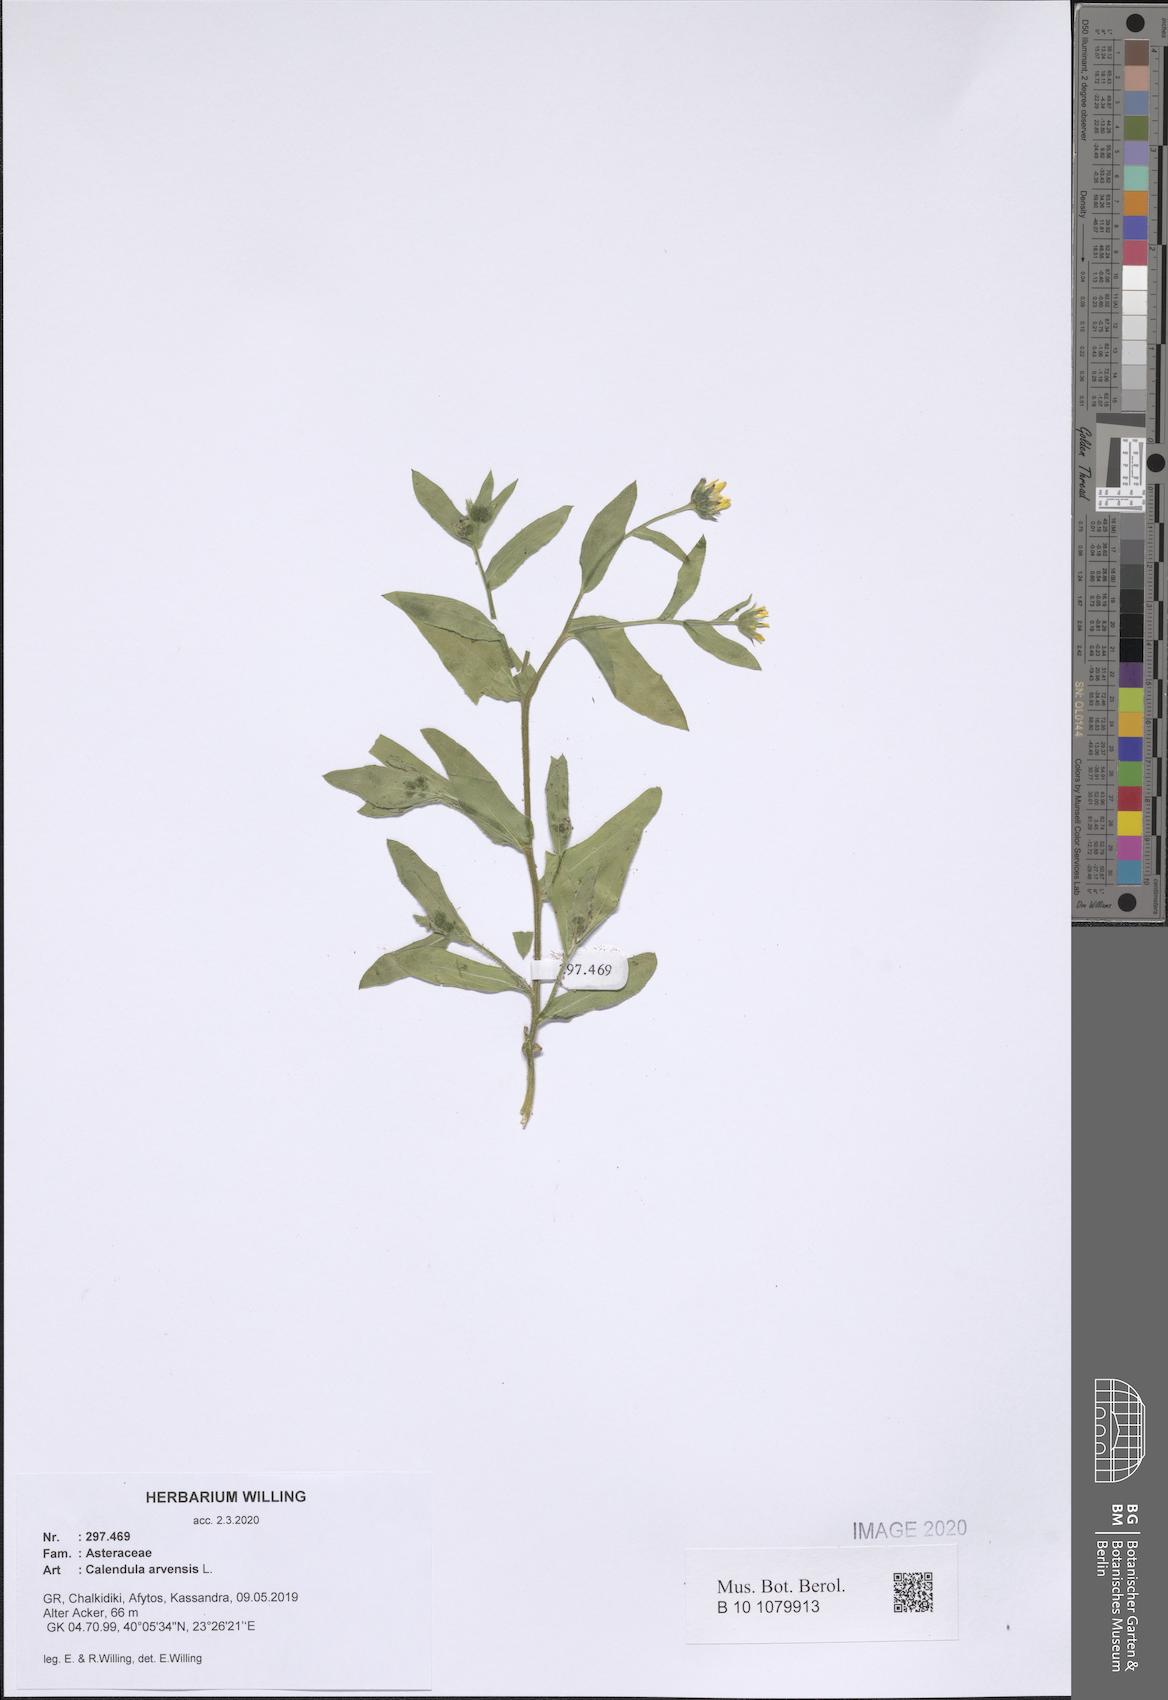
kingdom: Plantae
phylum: Tracheophyta
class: Magnoliopsida
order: Asterales
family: Asteraceae
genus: Calendula
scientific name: Calendula arvensis
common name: Field marigold
